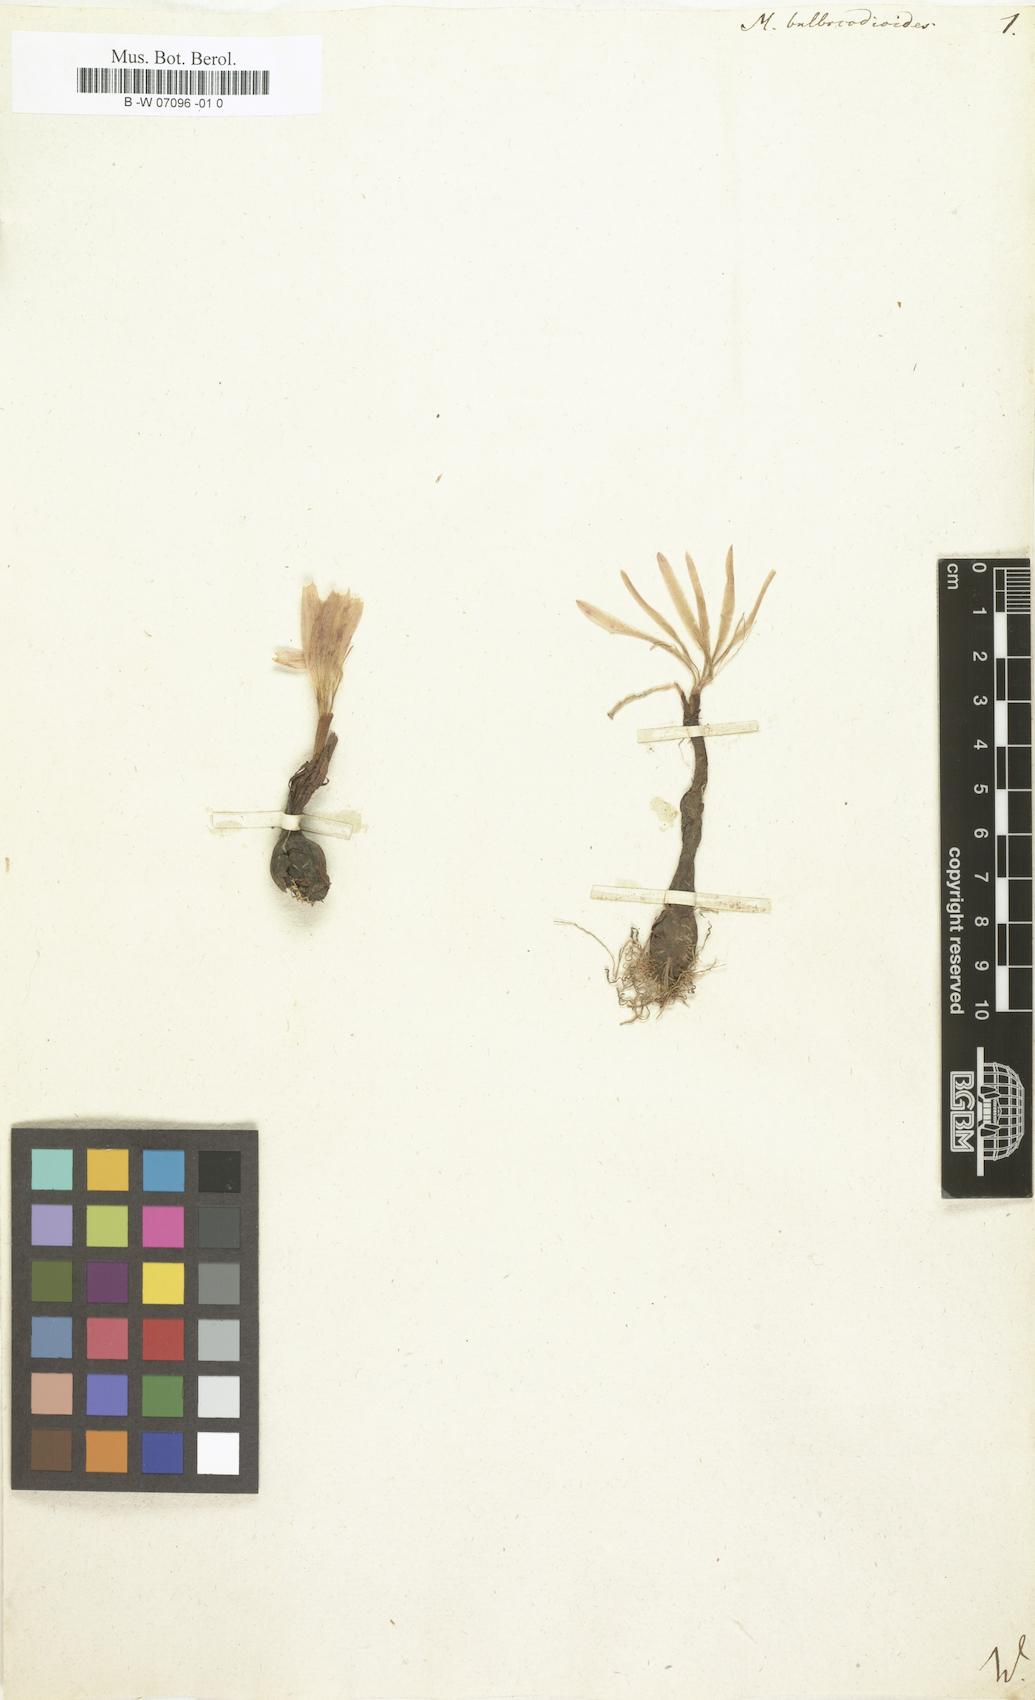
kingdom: Plantae
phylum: Tracheophyta
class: Liliopsida
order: Liliales
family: Colchicaceae
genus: Colchicum
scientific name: Colchicum
